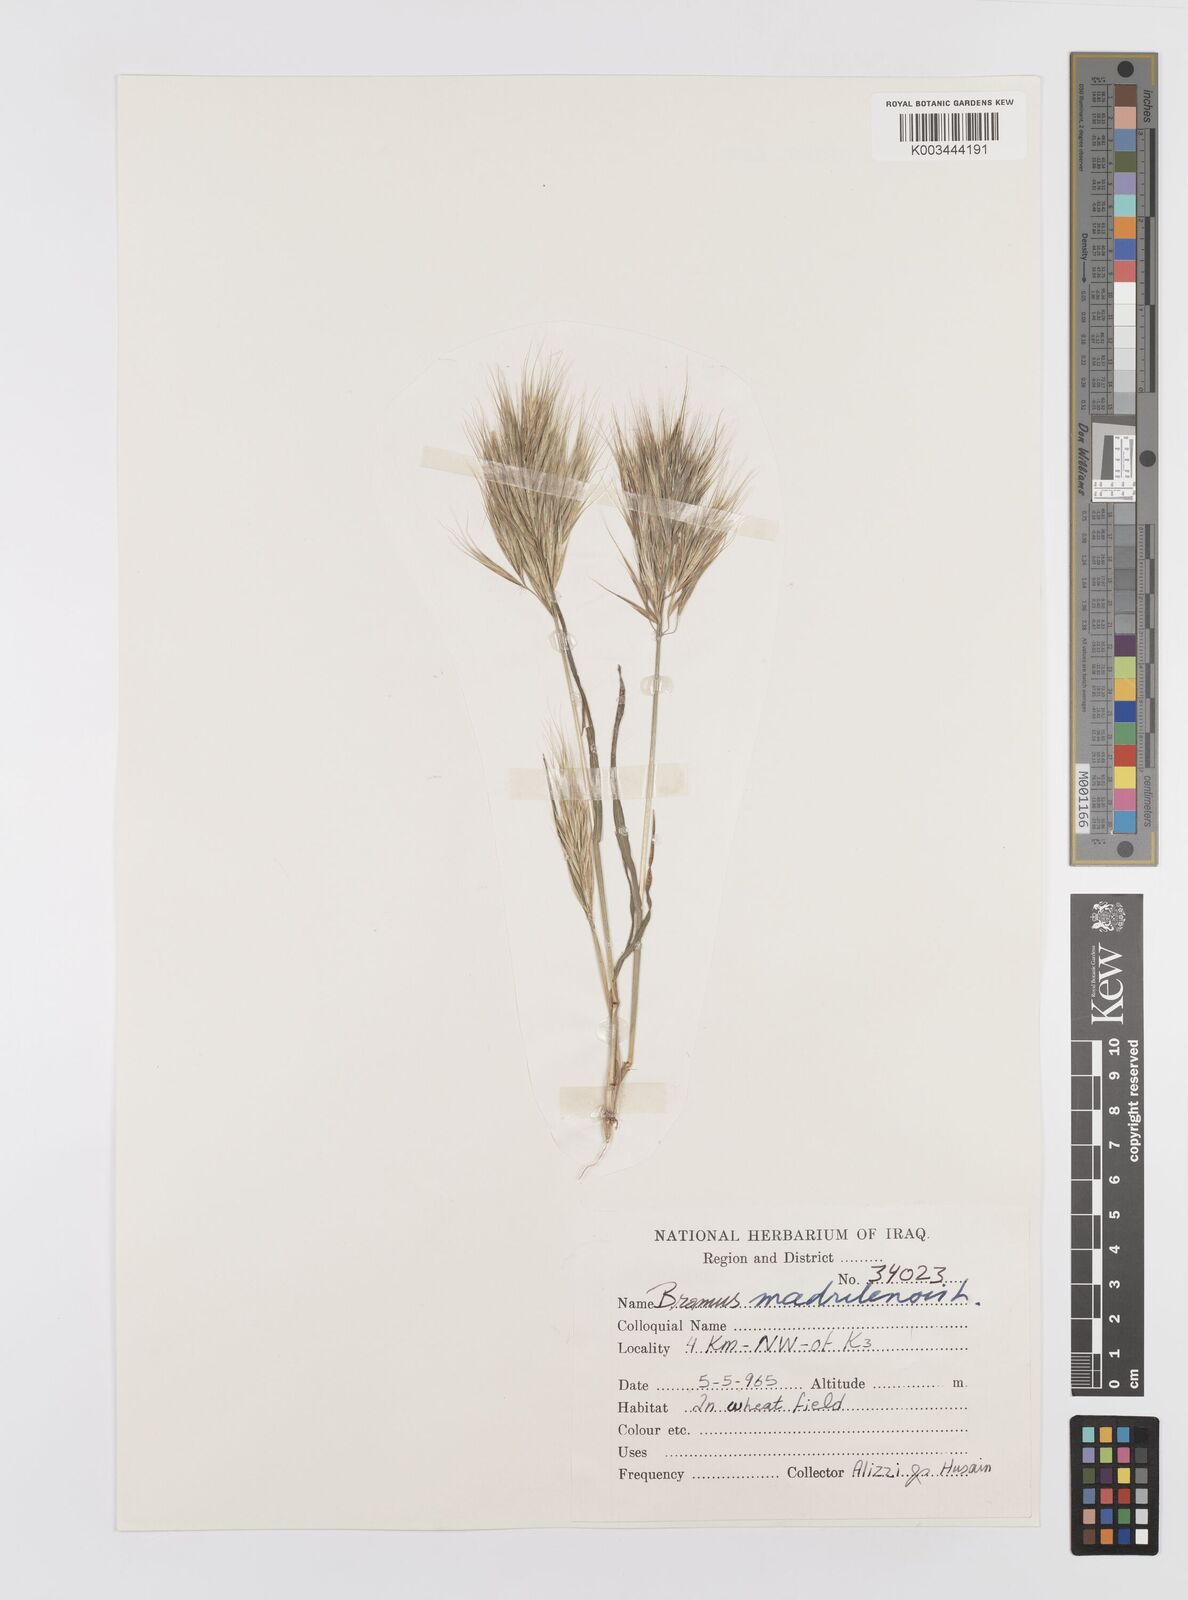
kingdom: Plantae
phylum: Tracheophyta
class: Liliopsida
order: Poales
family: Poaceae
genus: Bromus
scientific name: Bromus madritensis
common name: Compact brome
